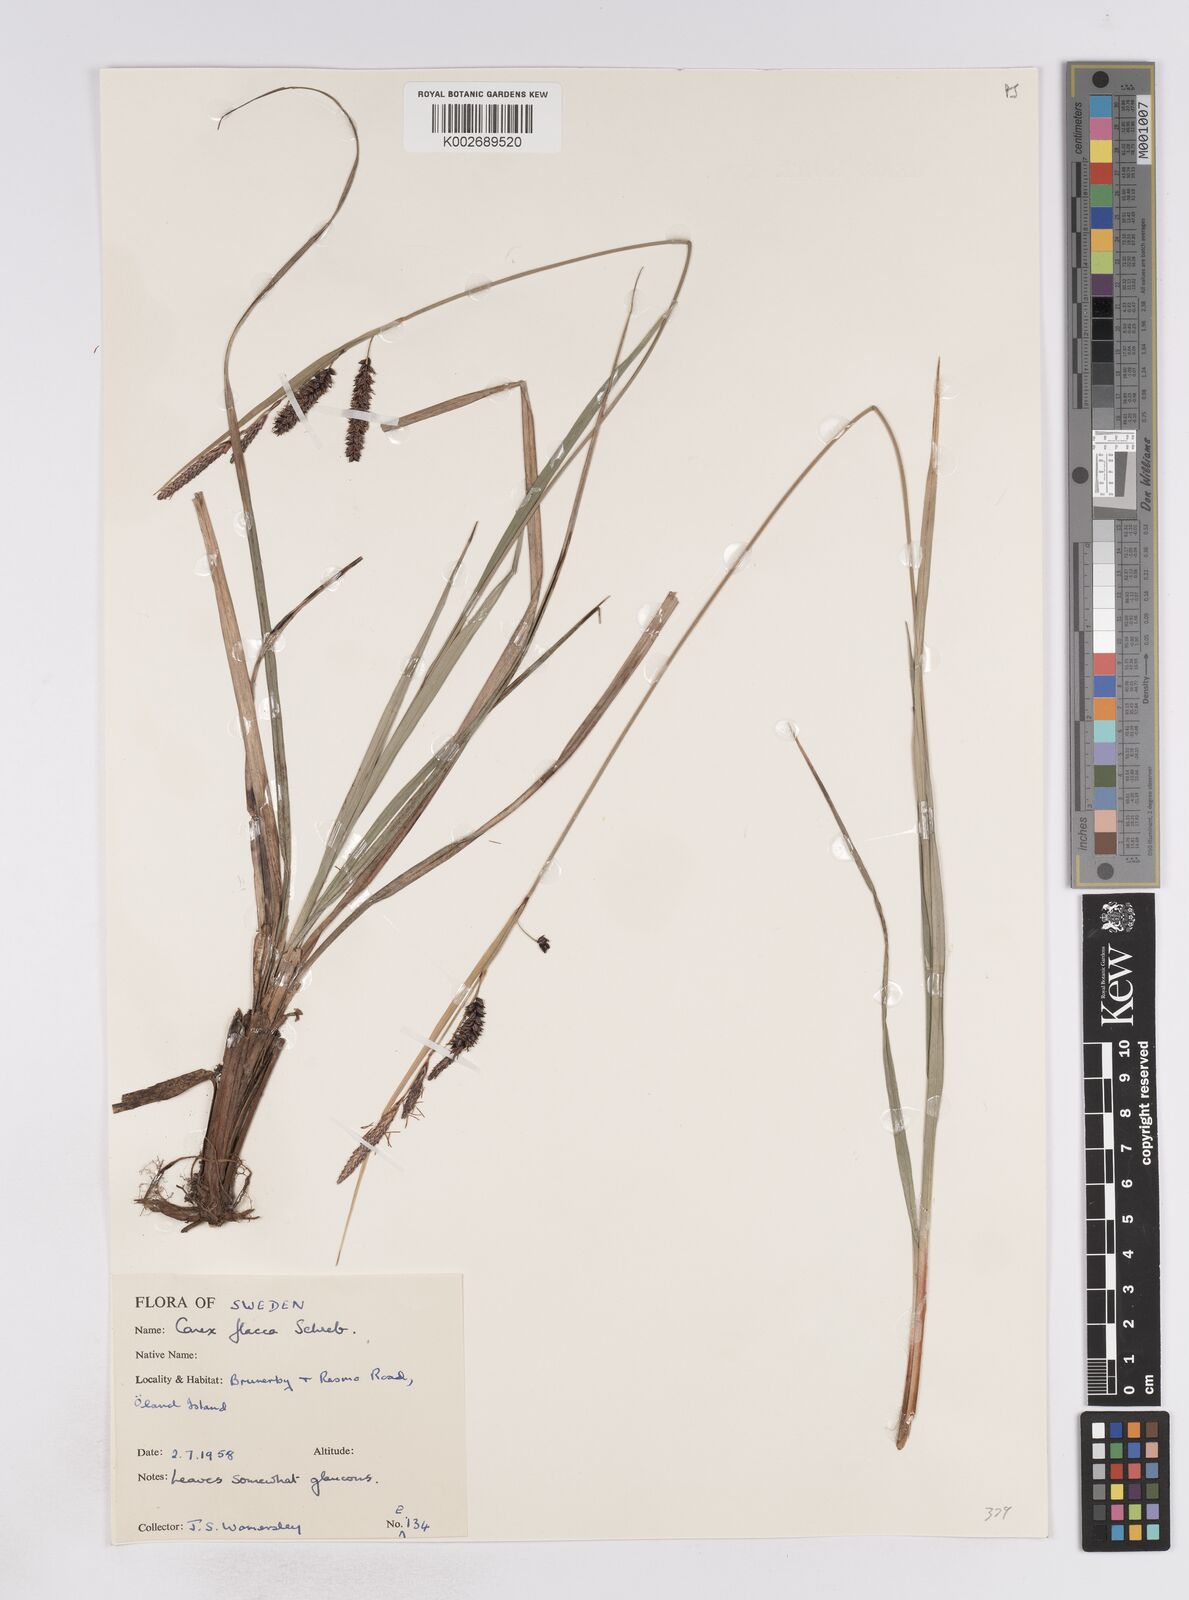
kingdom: Plantae
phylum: Tracheophyta
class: Liliopsida
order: Poales
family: Cyperaceae
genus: Carex
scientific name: Carex flacca
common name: Glaucous sedge
